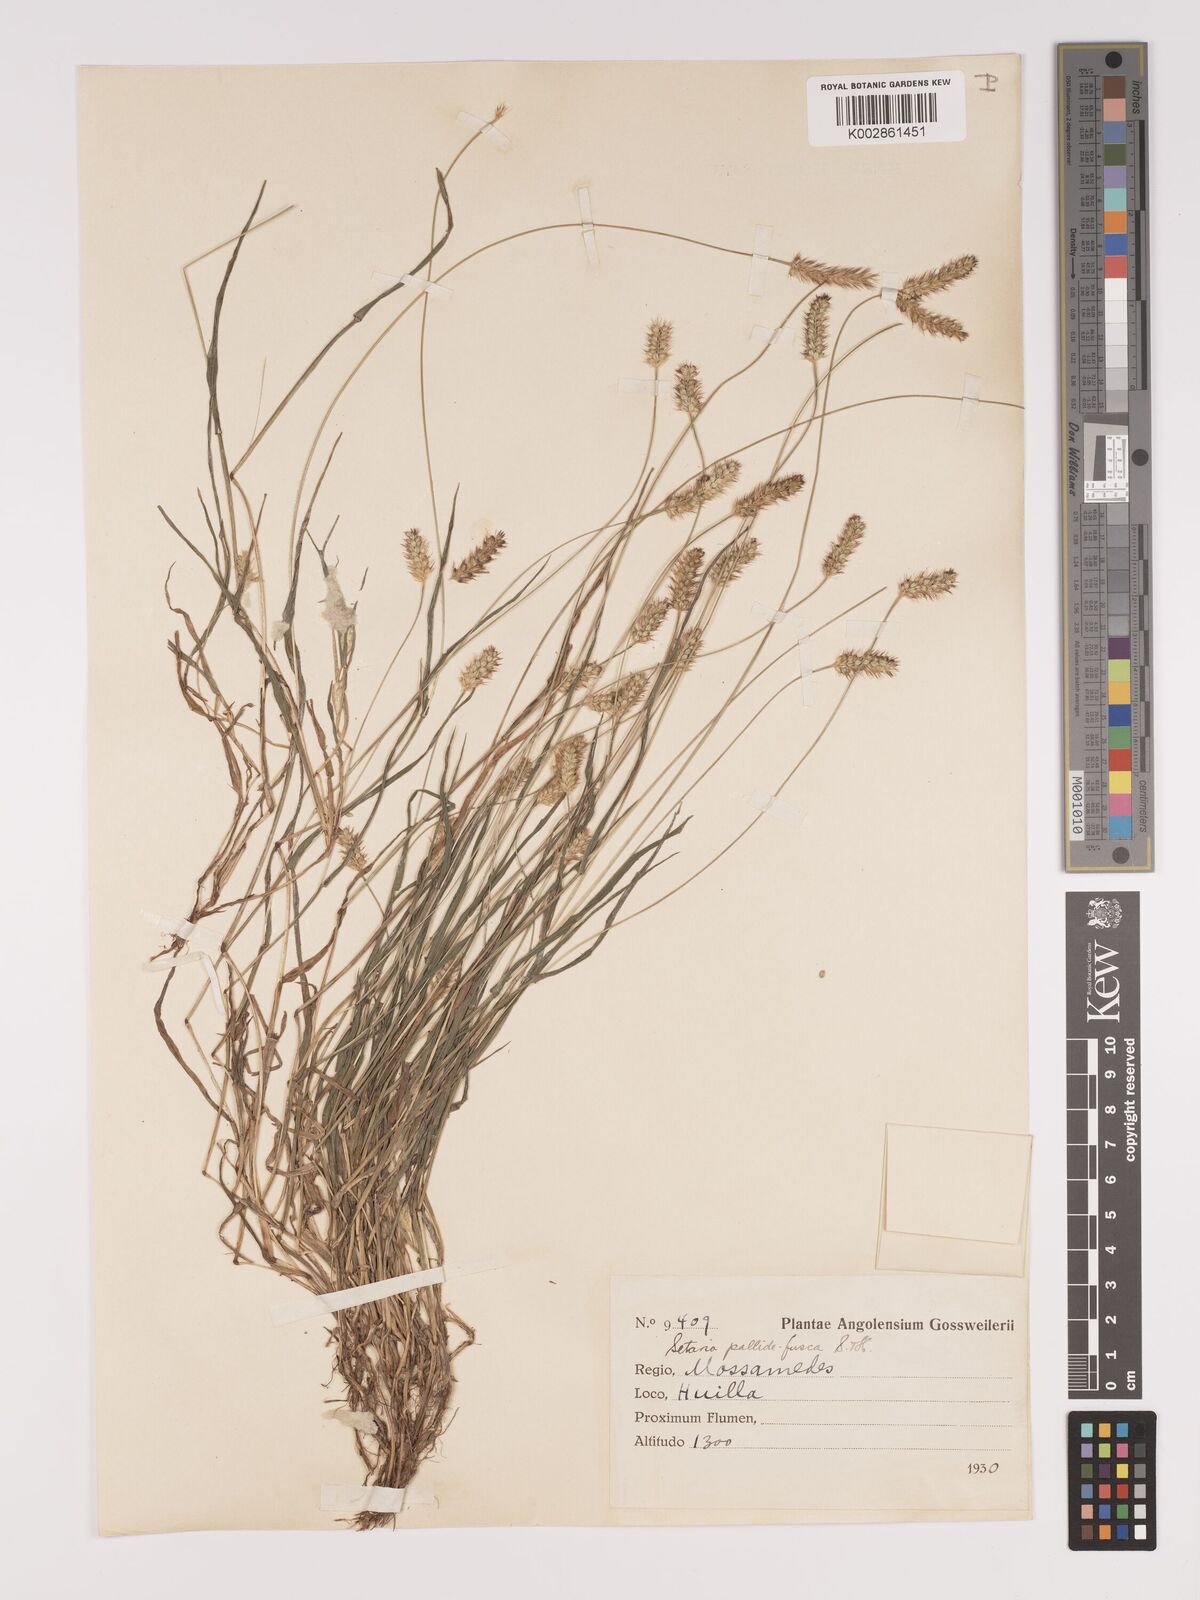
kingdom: Plantae
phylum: Tracheophyta
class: Liliopsida
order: Poales
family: Poaceae
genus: Setaria
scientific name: Setaria pumila
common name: Yellow bristle-grass
